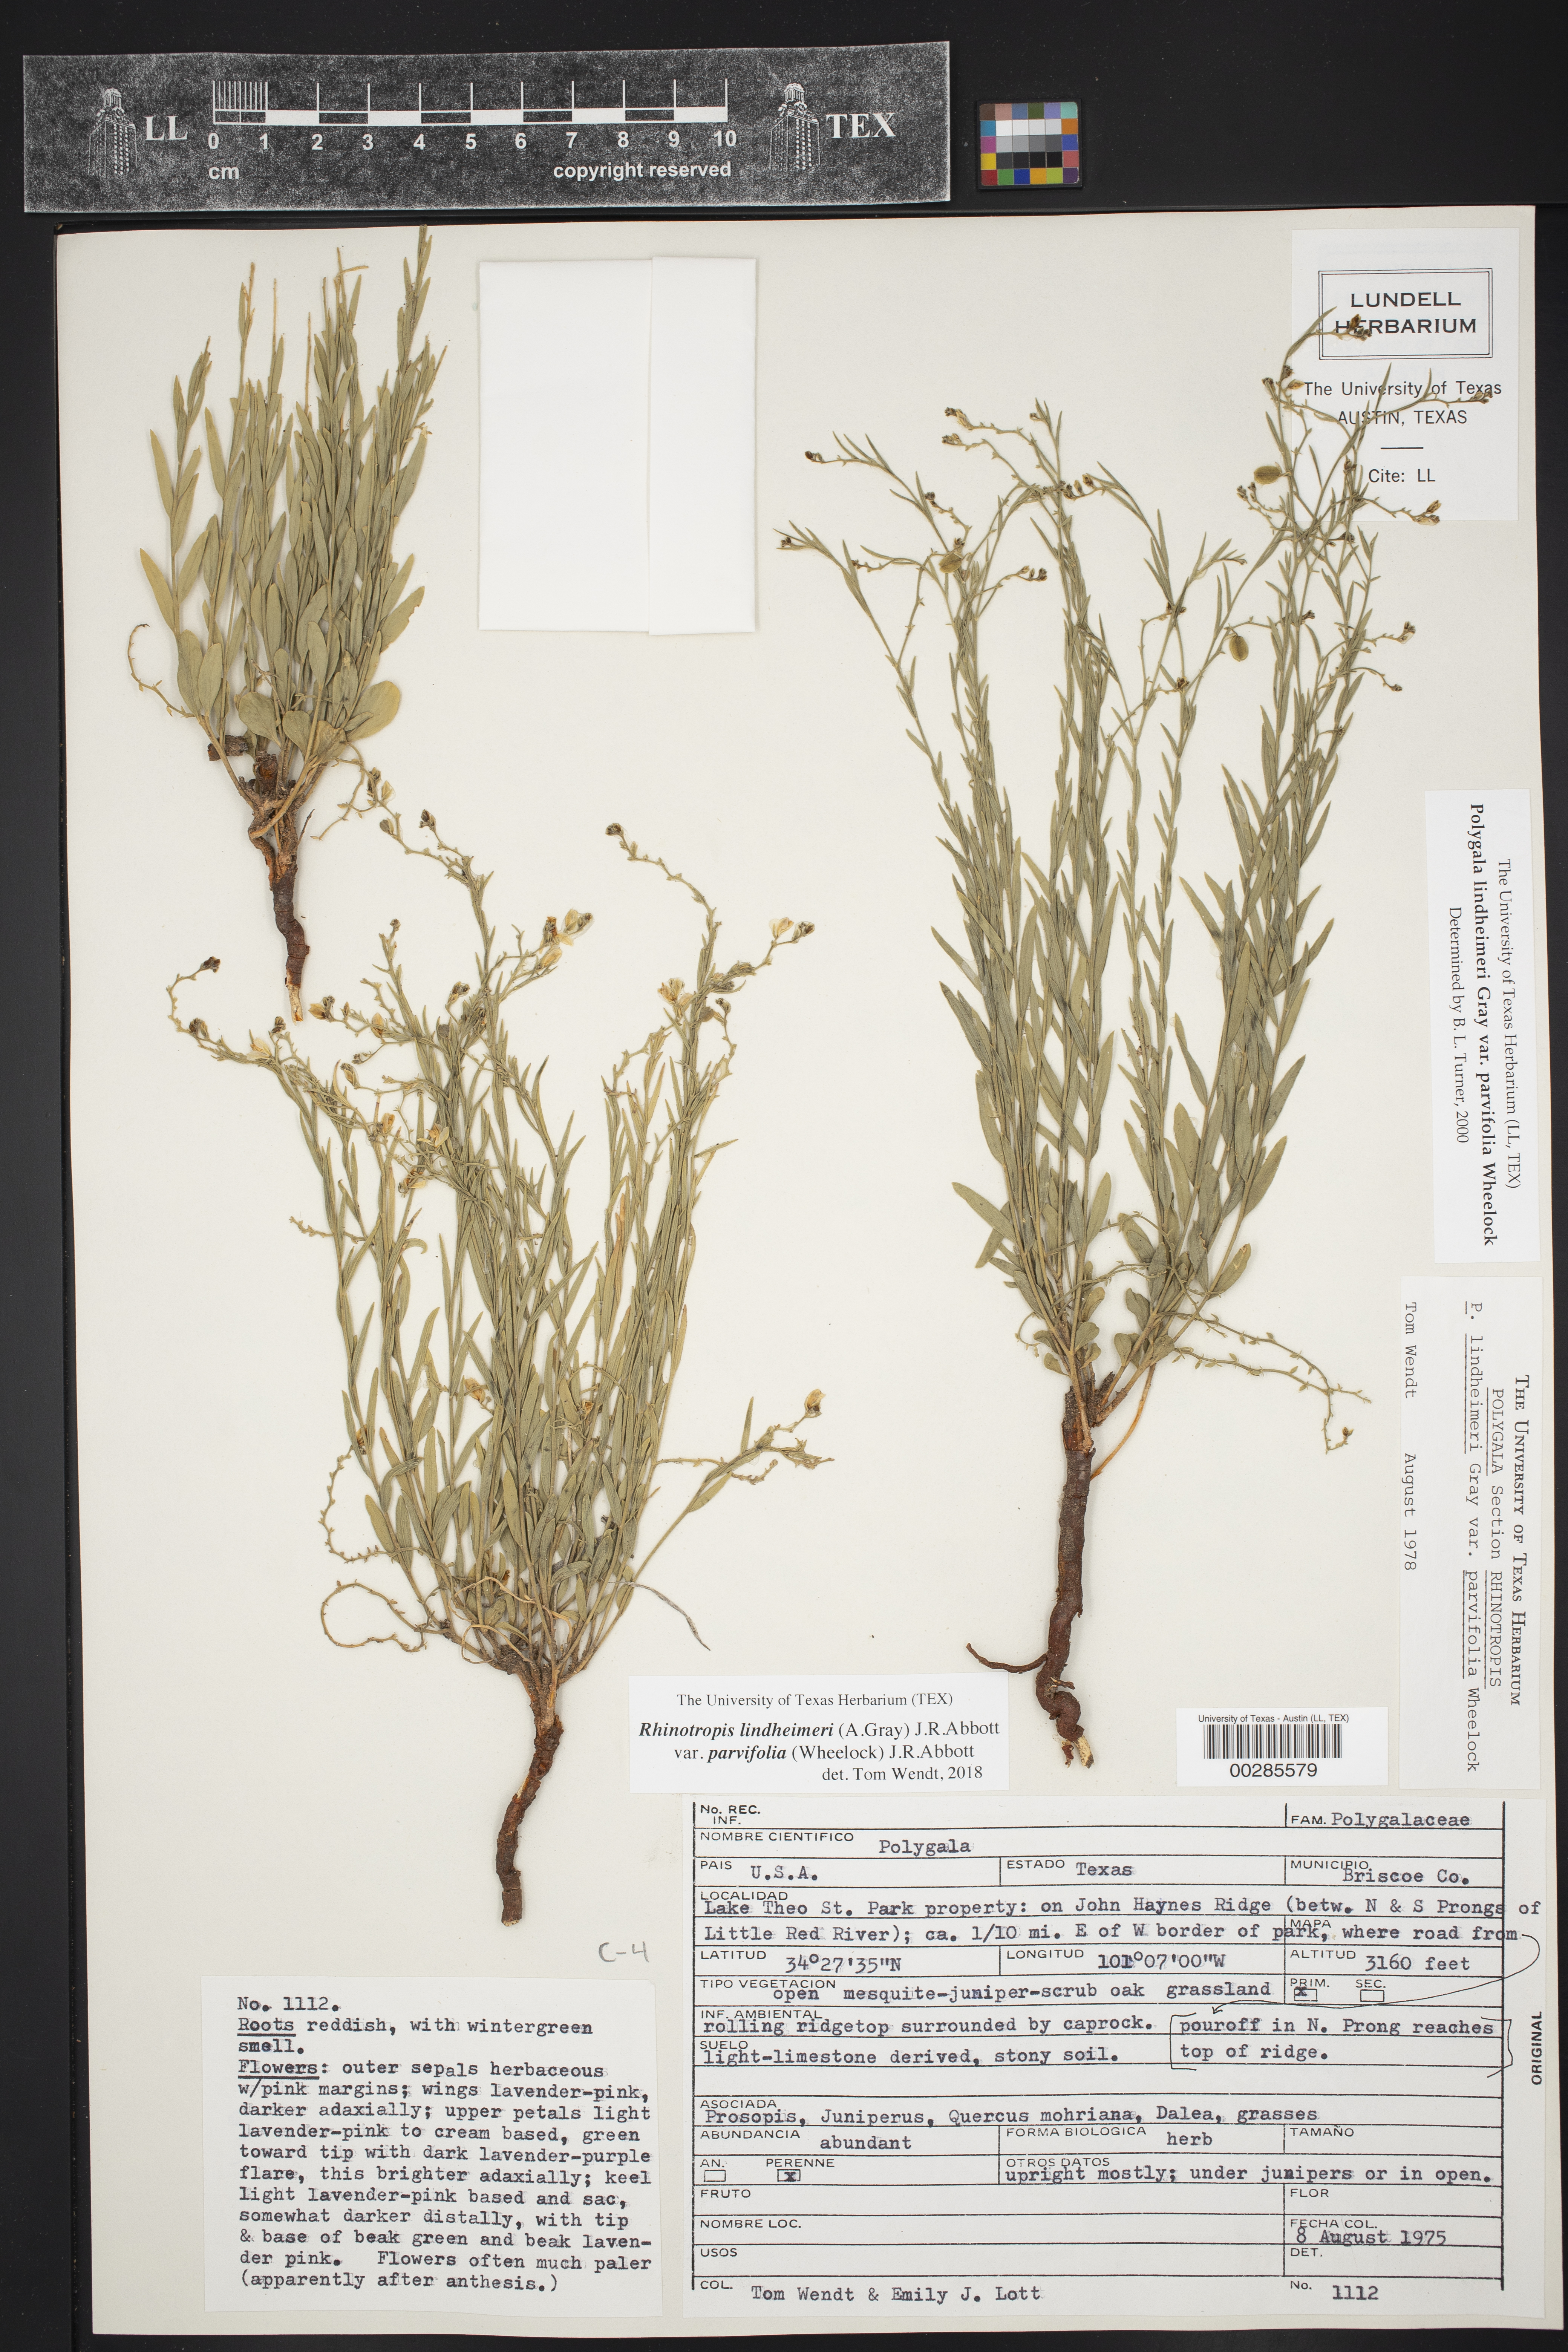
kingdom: Plantae
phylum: Tracheophyta
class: Magnoliopsida
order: Fabales
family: Polygalaceae
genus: Rhinotropis
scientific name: Rhinotropis lindheimeri
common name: Shrubby milkwort
